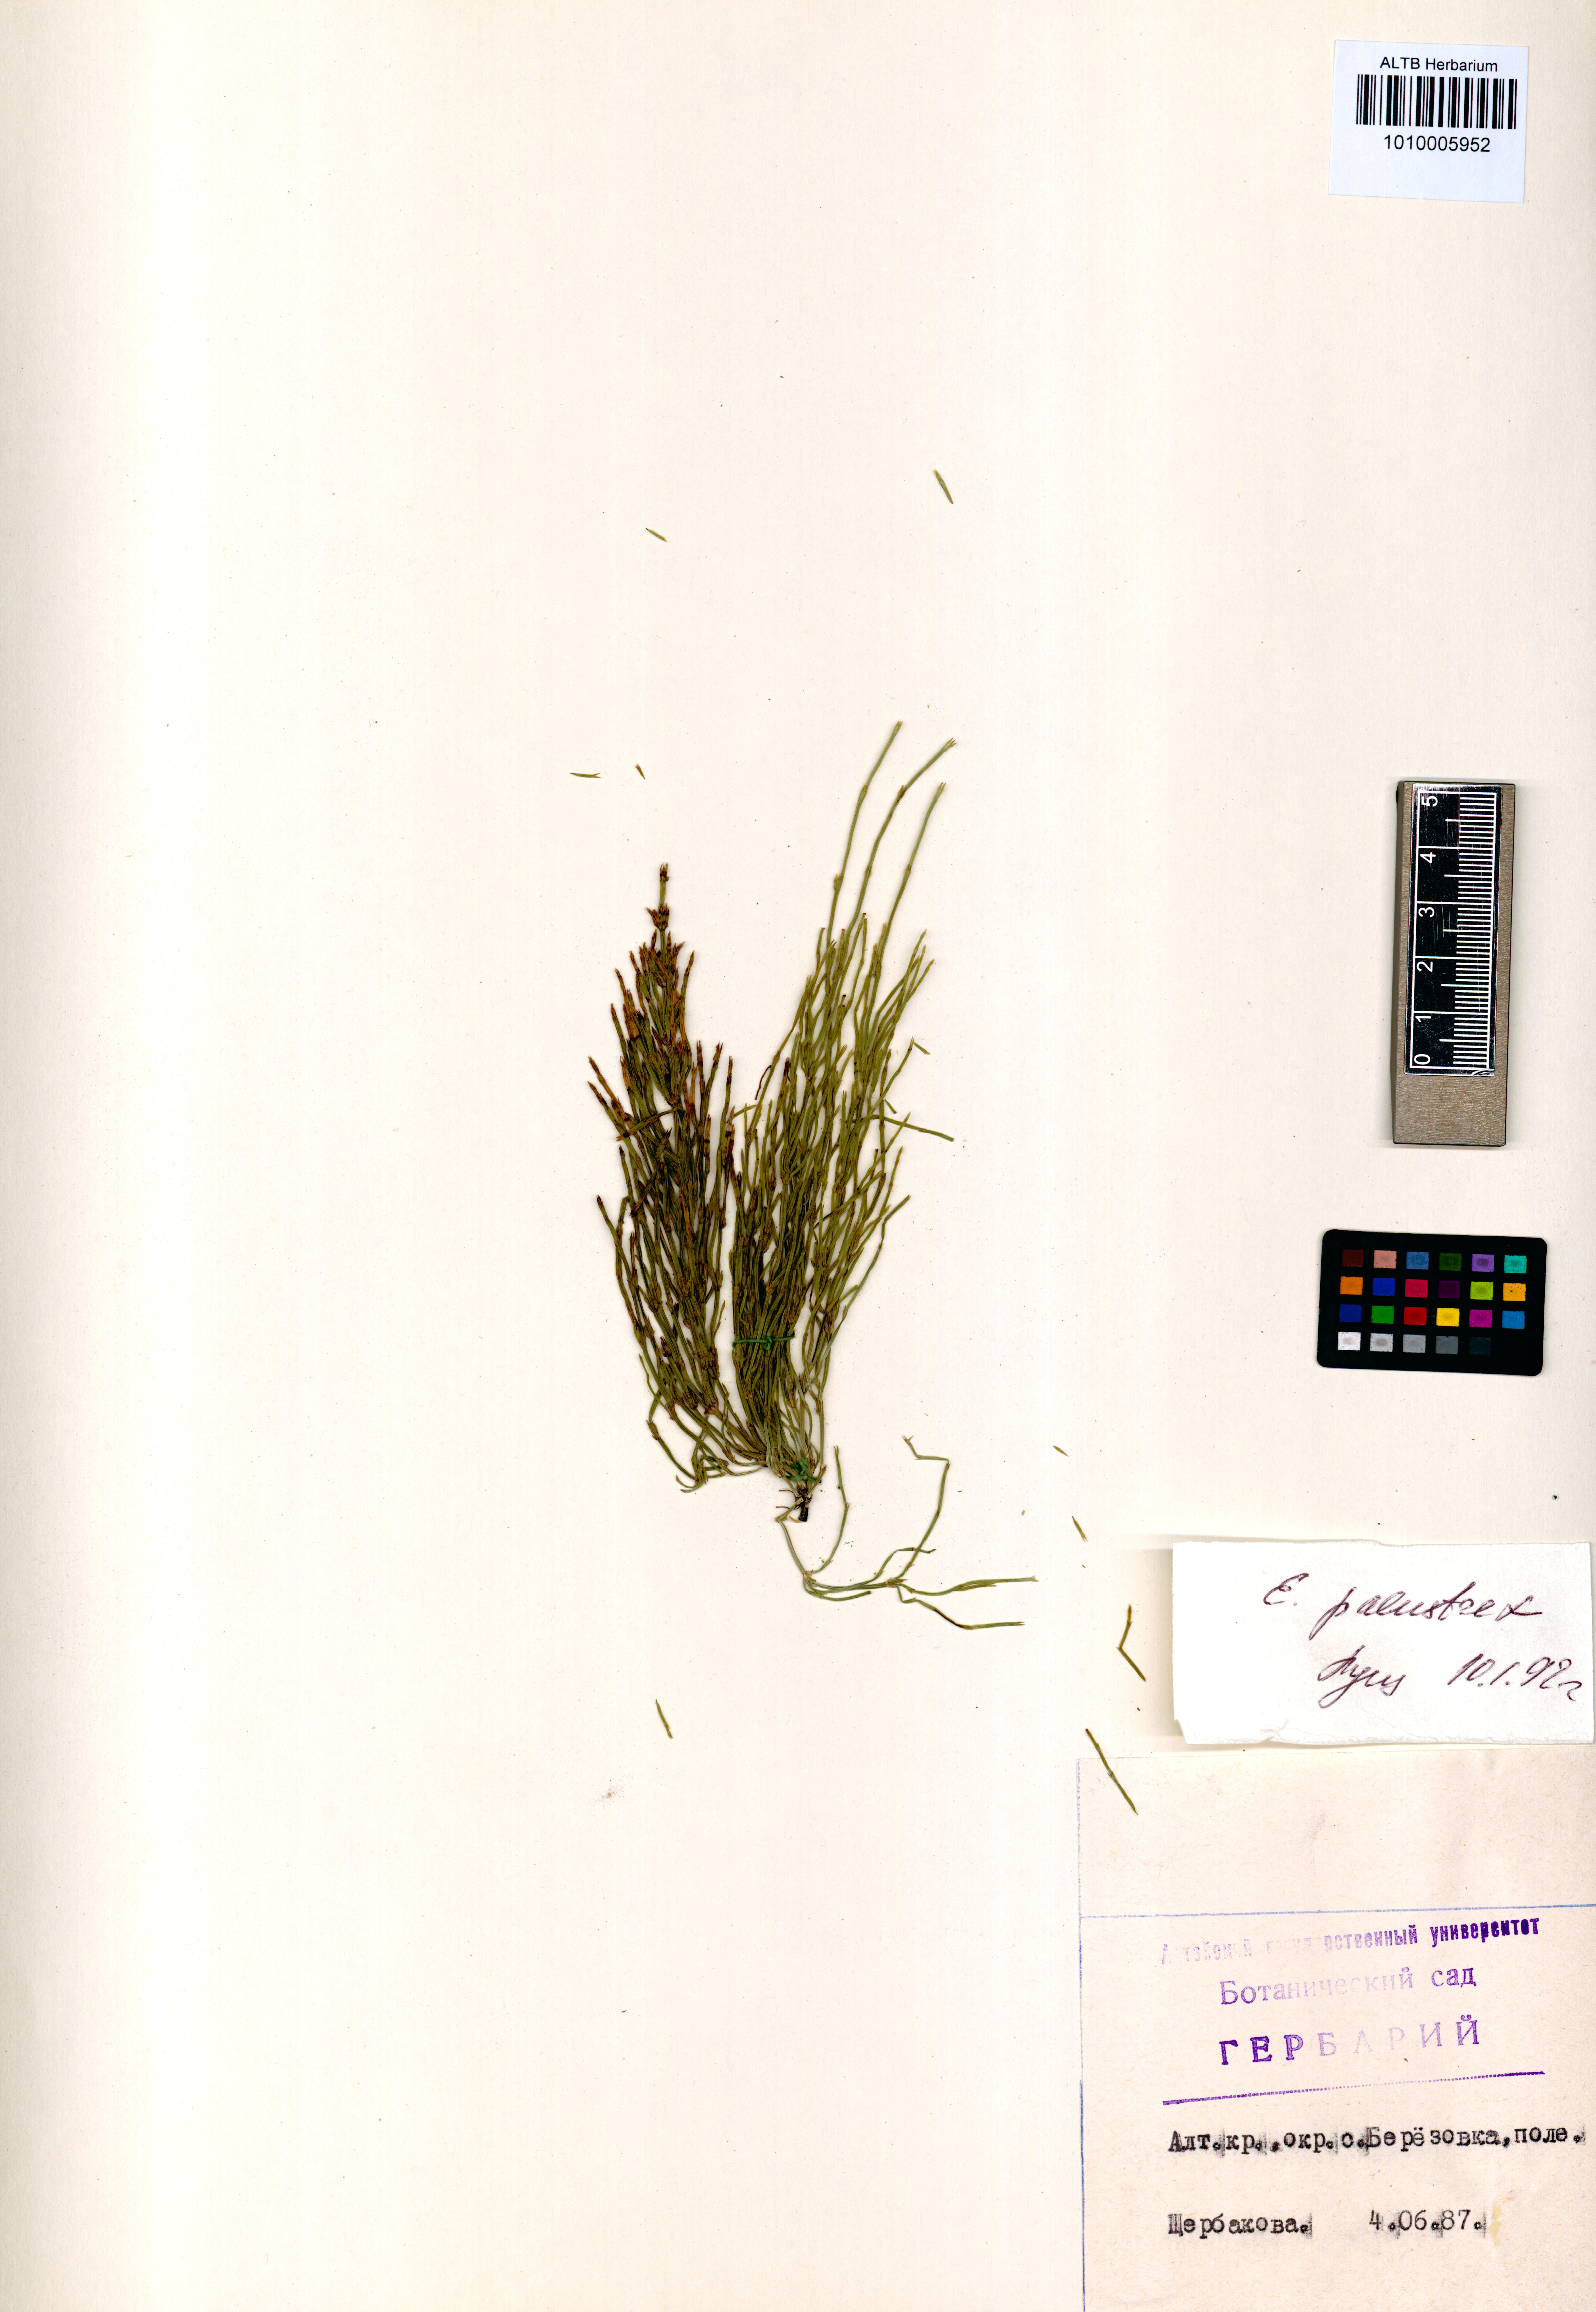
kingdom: Plantae
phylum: Tracheophyta
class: Polypodiopsida
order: Equisetales
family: Equisetaceae
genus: Equisetum
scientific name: Equisetum palustre
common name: Marsh horsetail
